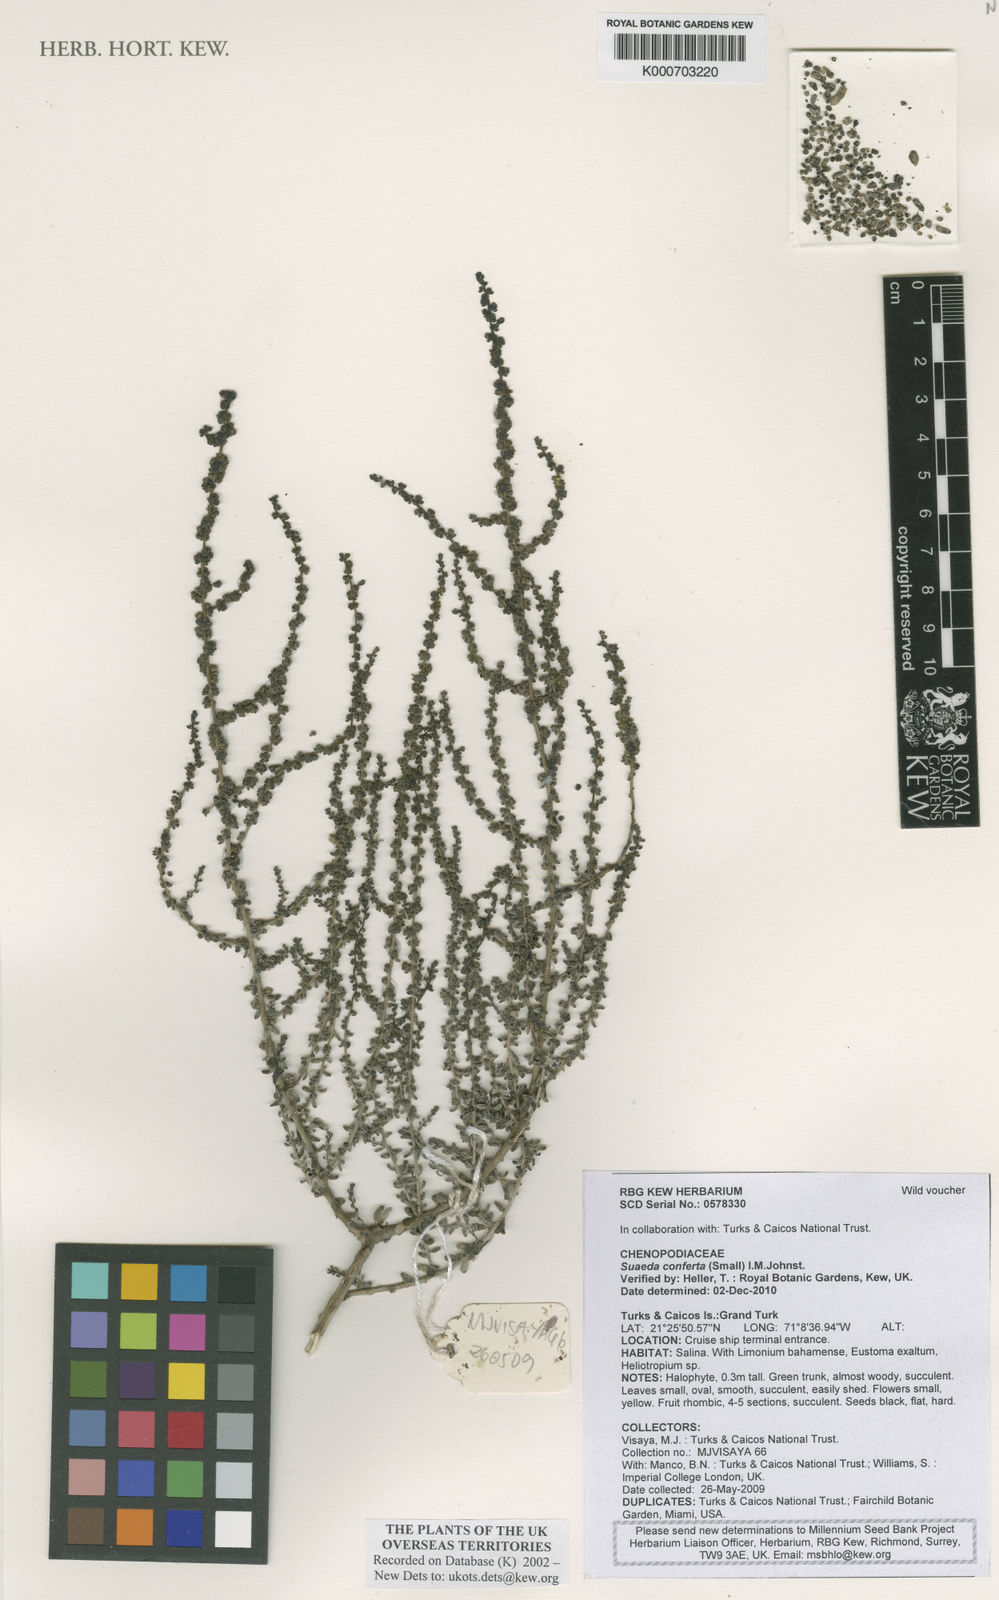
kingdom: Plantae
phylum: Tracheophyta
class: Magnoliopsida
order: Caryophyllales
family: Amaranthaceae
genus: Suaeda
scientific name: Suaeda conferta
